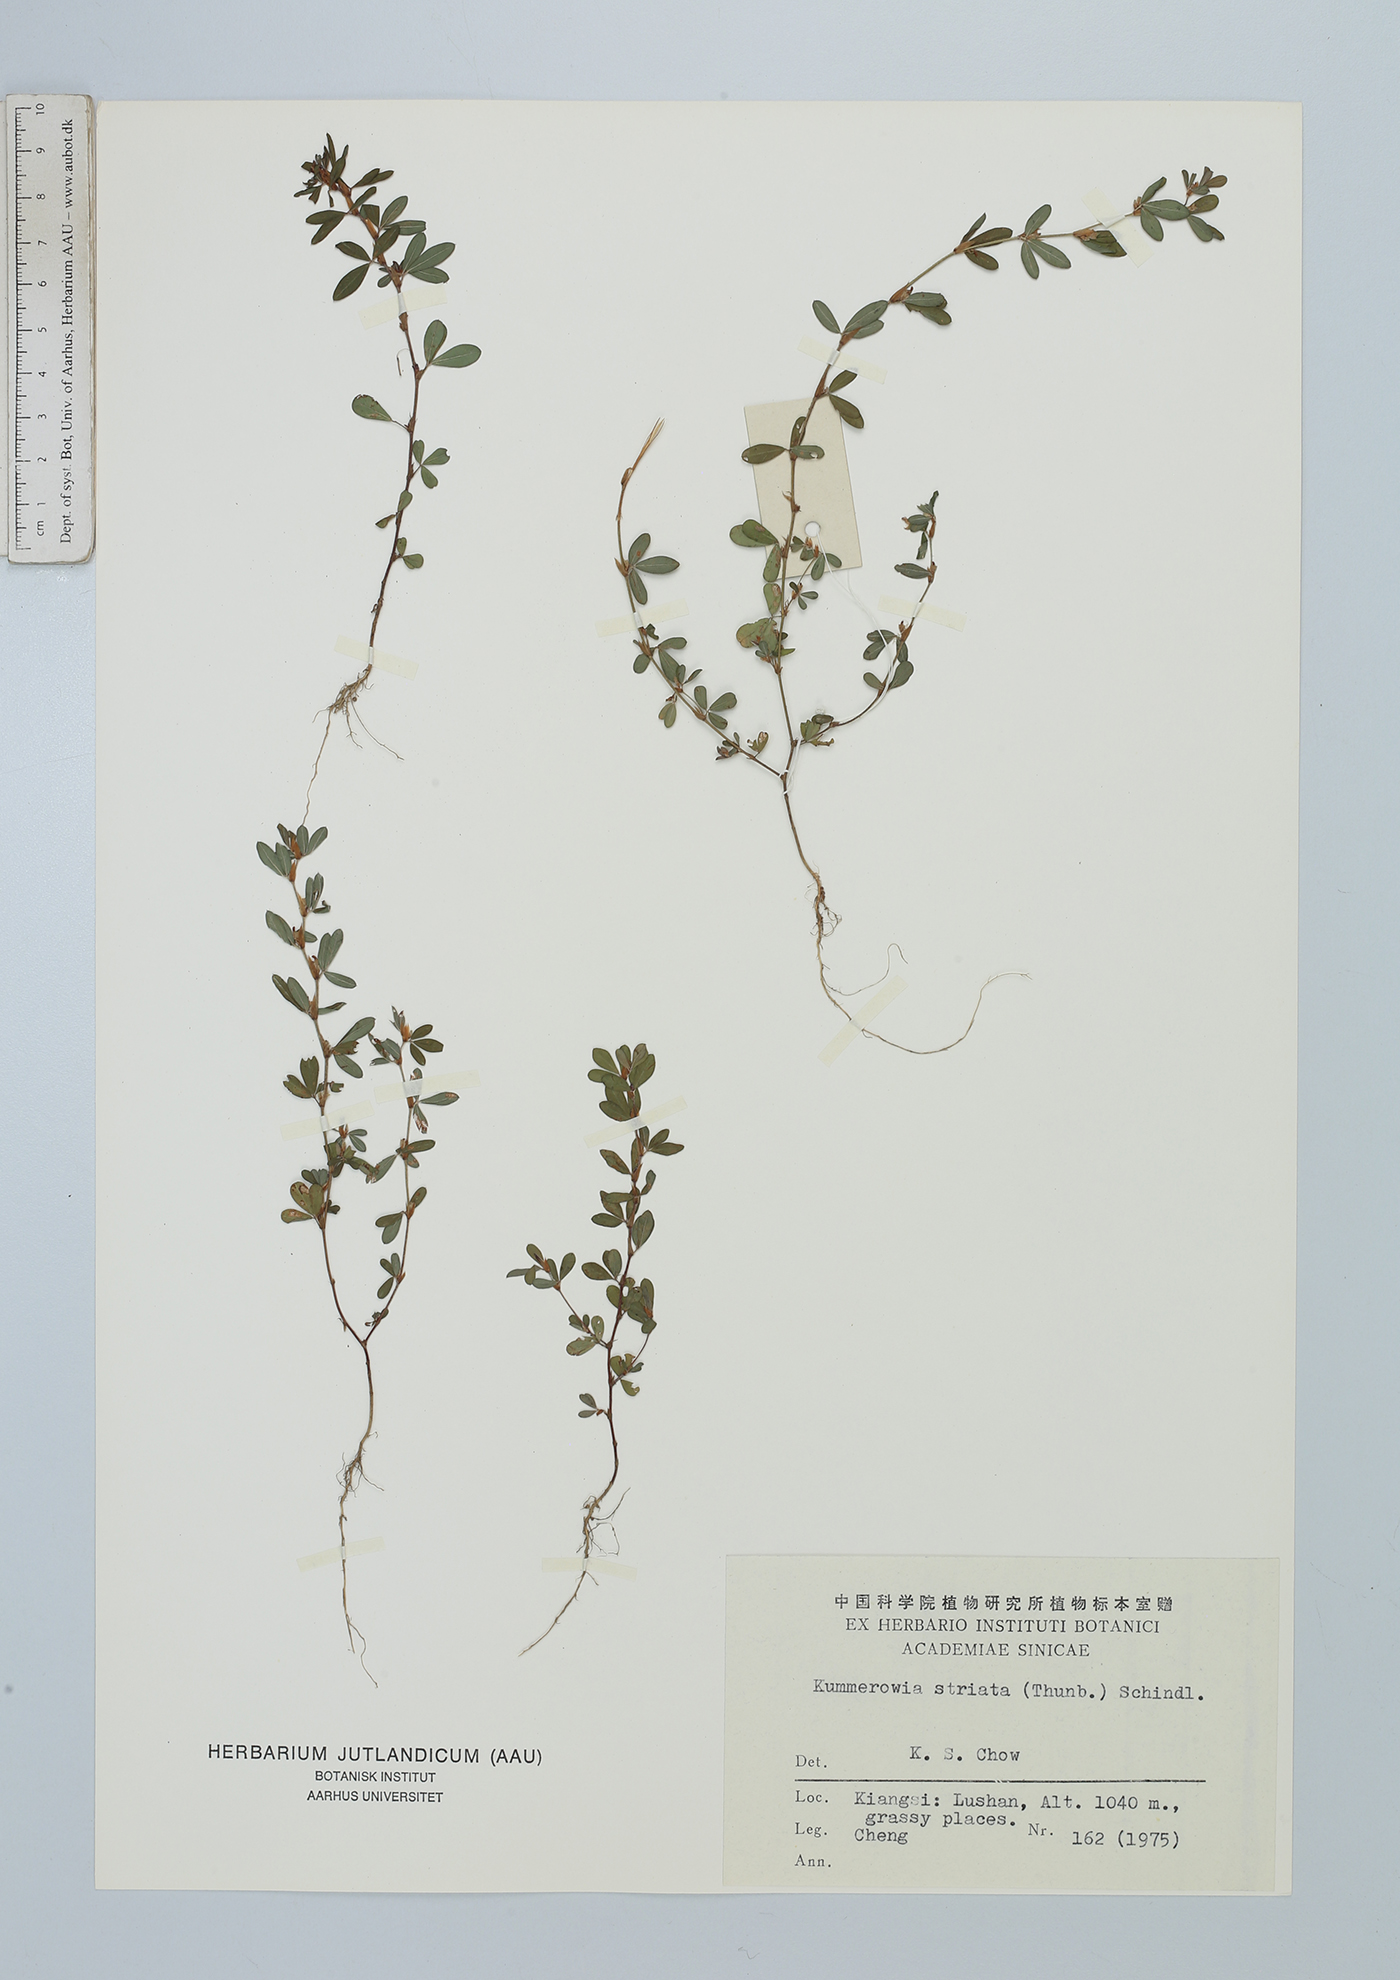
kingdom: Plantae
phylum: Tracheophyta
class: Magnoliopsida
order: Fabales
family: Fabaceae
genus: Kummerowia
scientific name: Kummerowia striata
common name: Japanese clover
